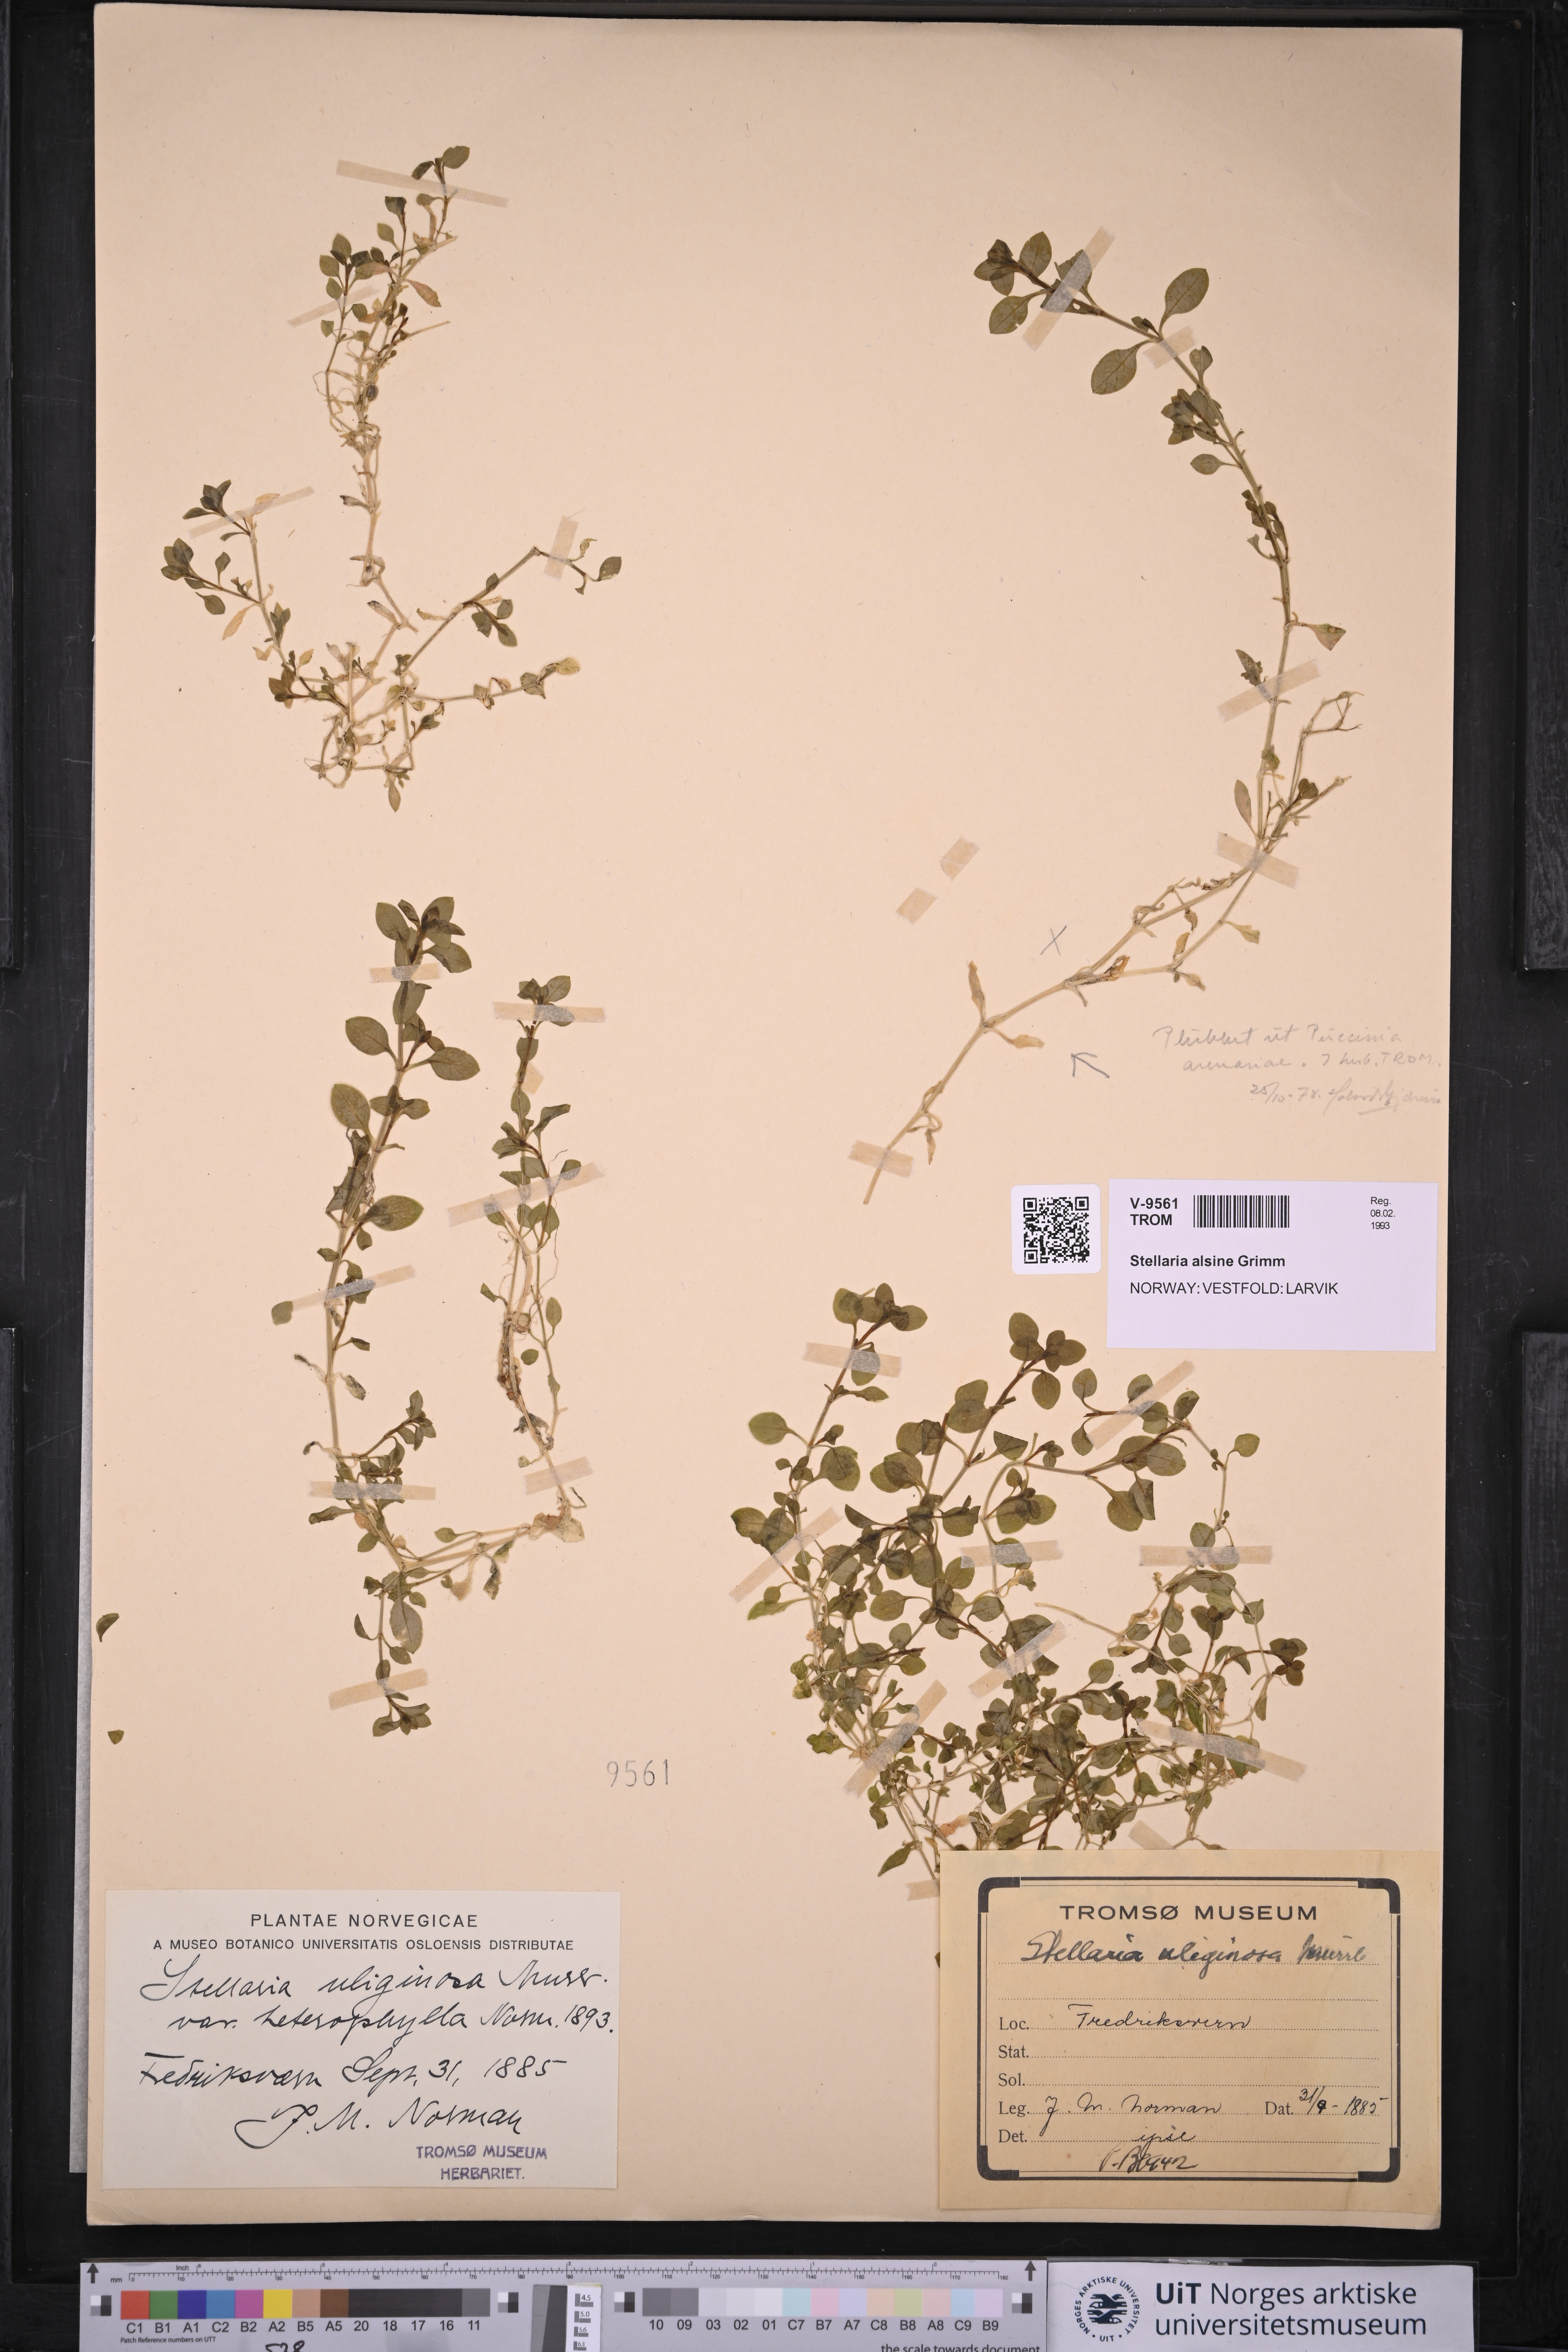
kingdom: Plantae
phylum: Tracheophyta
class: Magnoliopsida
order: Caryophyllales
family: Caryophyllaceae
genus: Stellaria
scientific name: Stellaria alsine
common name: Bog stitchwort
